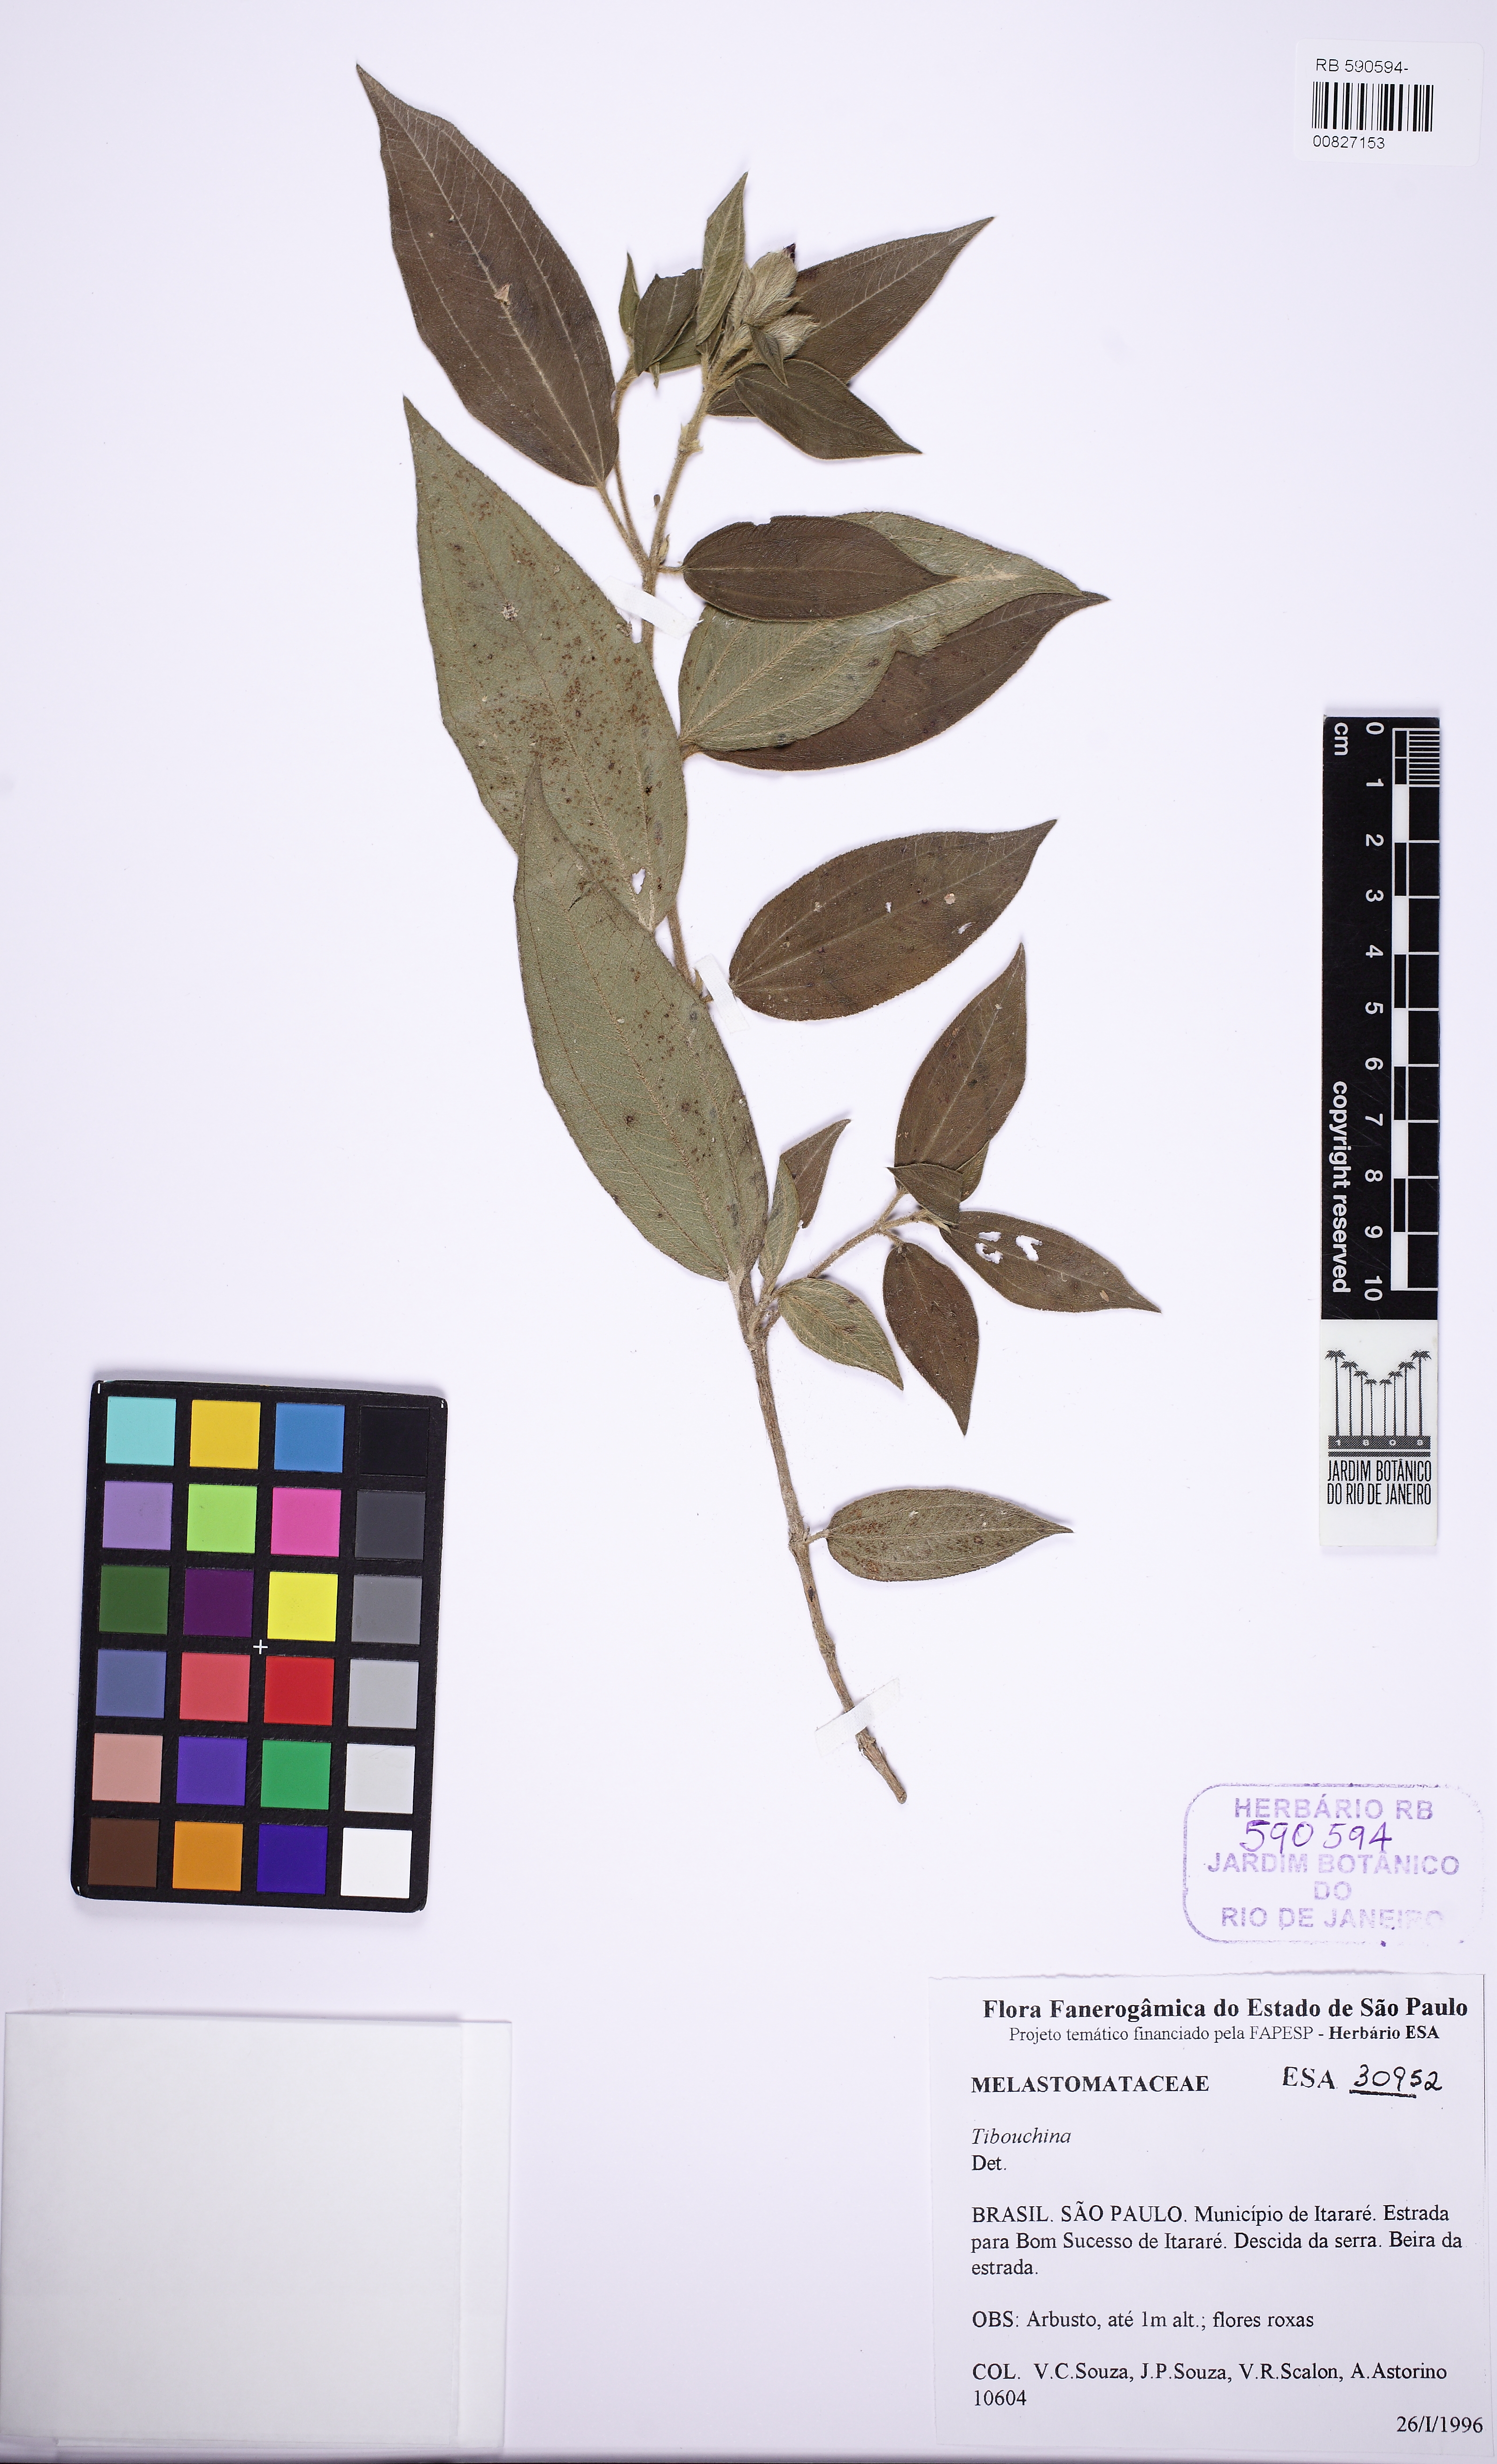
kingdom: Plantae
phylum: Tracheophyta
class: Magnoliopsida
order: Myrtales
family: Melastomataceae
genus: Tibouchina
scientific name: Tibouchina
